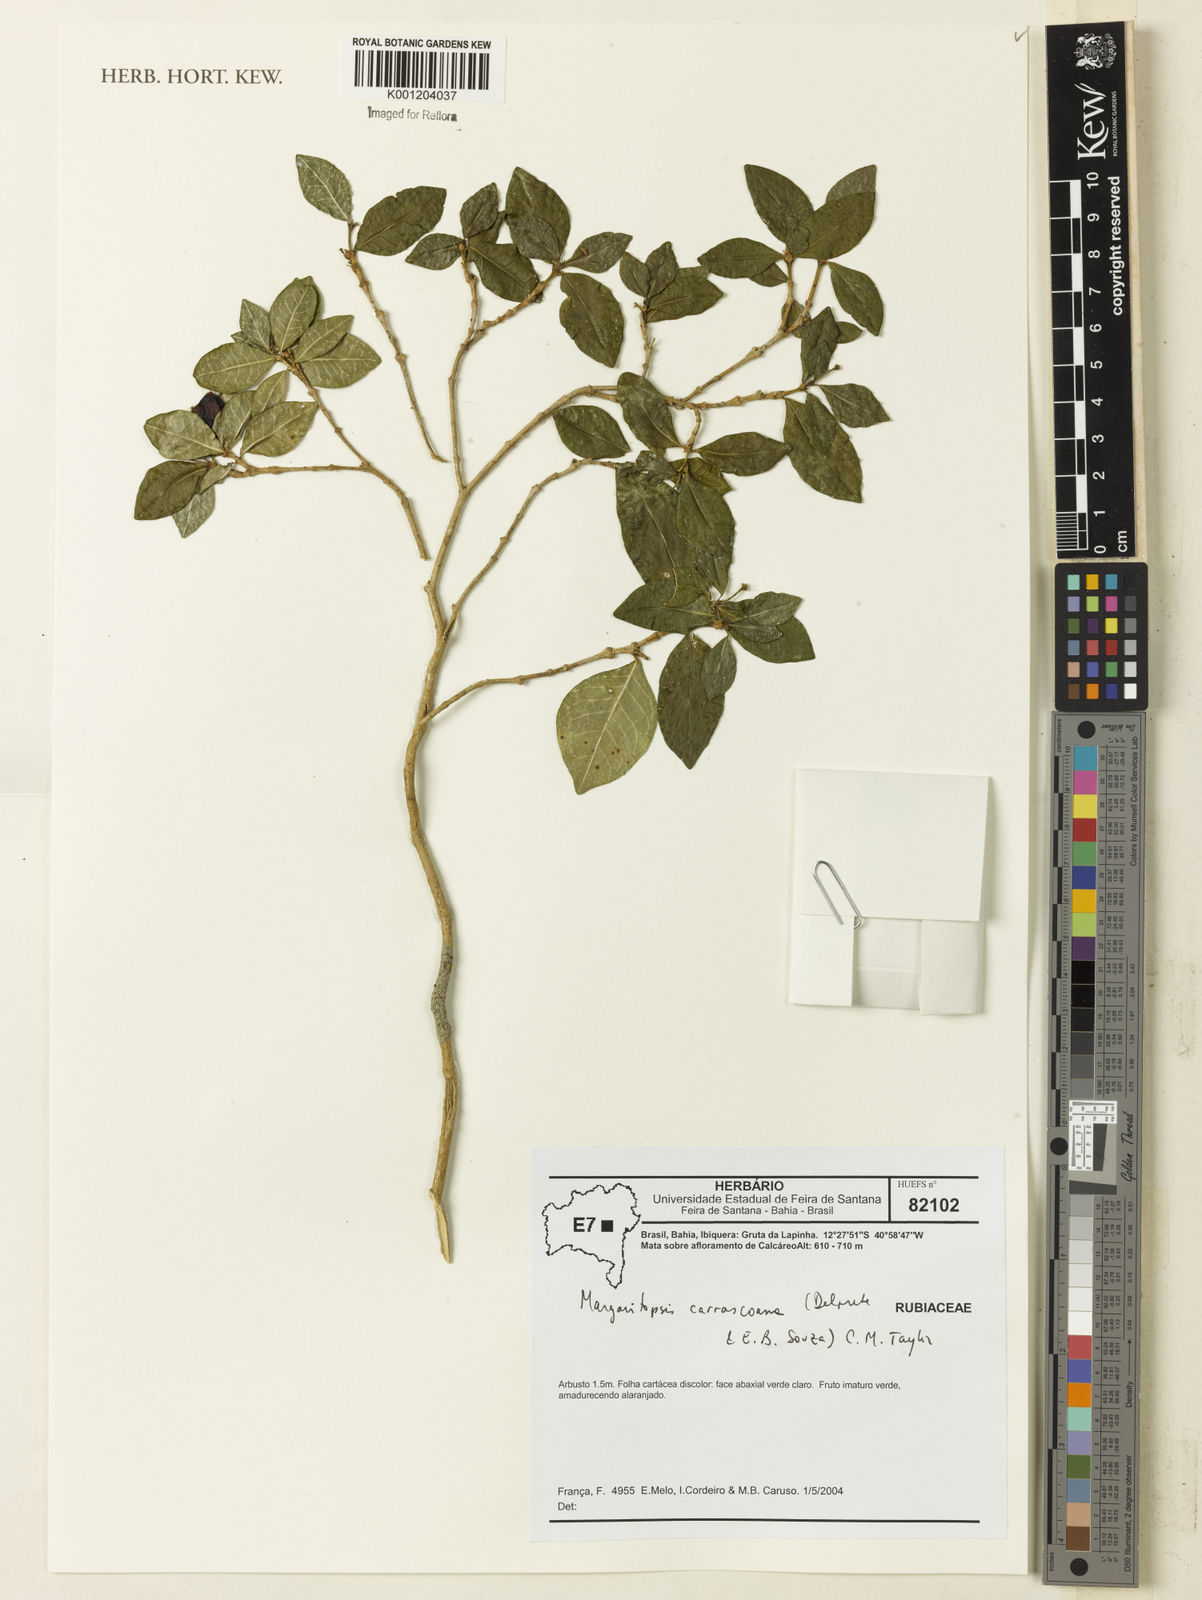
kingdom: Plantae
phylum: Tracheophyta
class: Magnoliopsida
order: Gentianales
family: Rubiaceae
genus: Eumachia
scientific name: Eumachia depauperata
